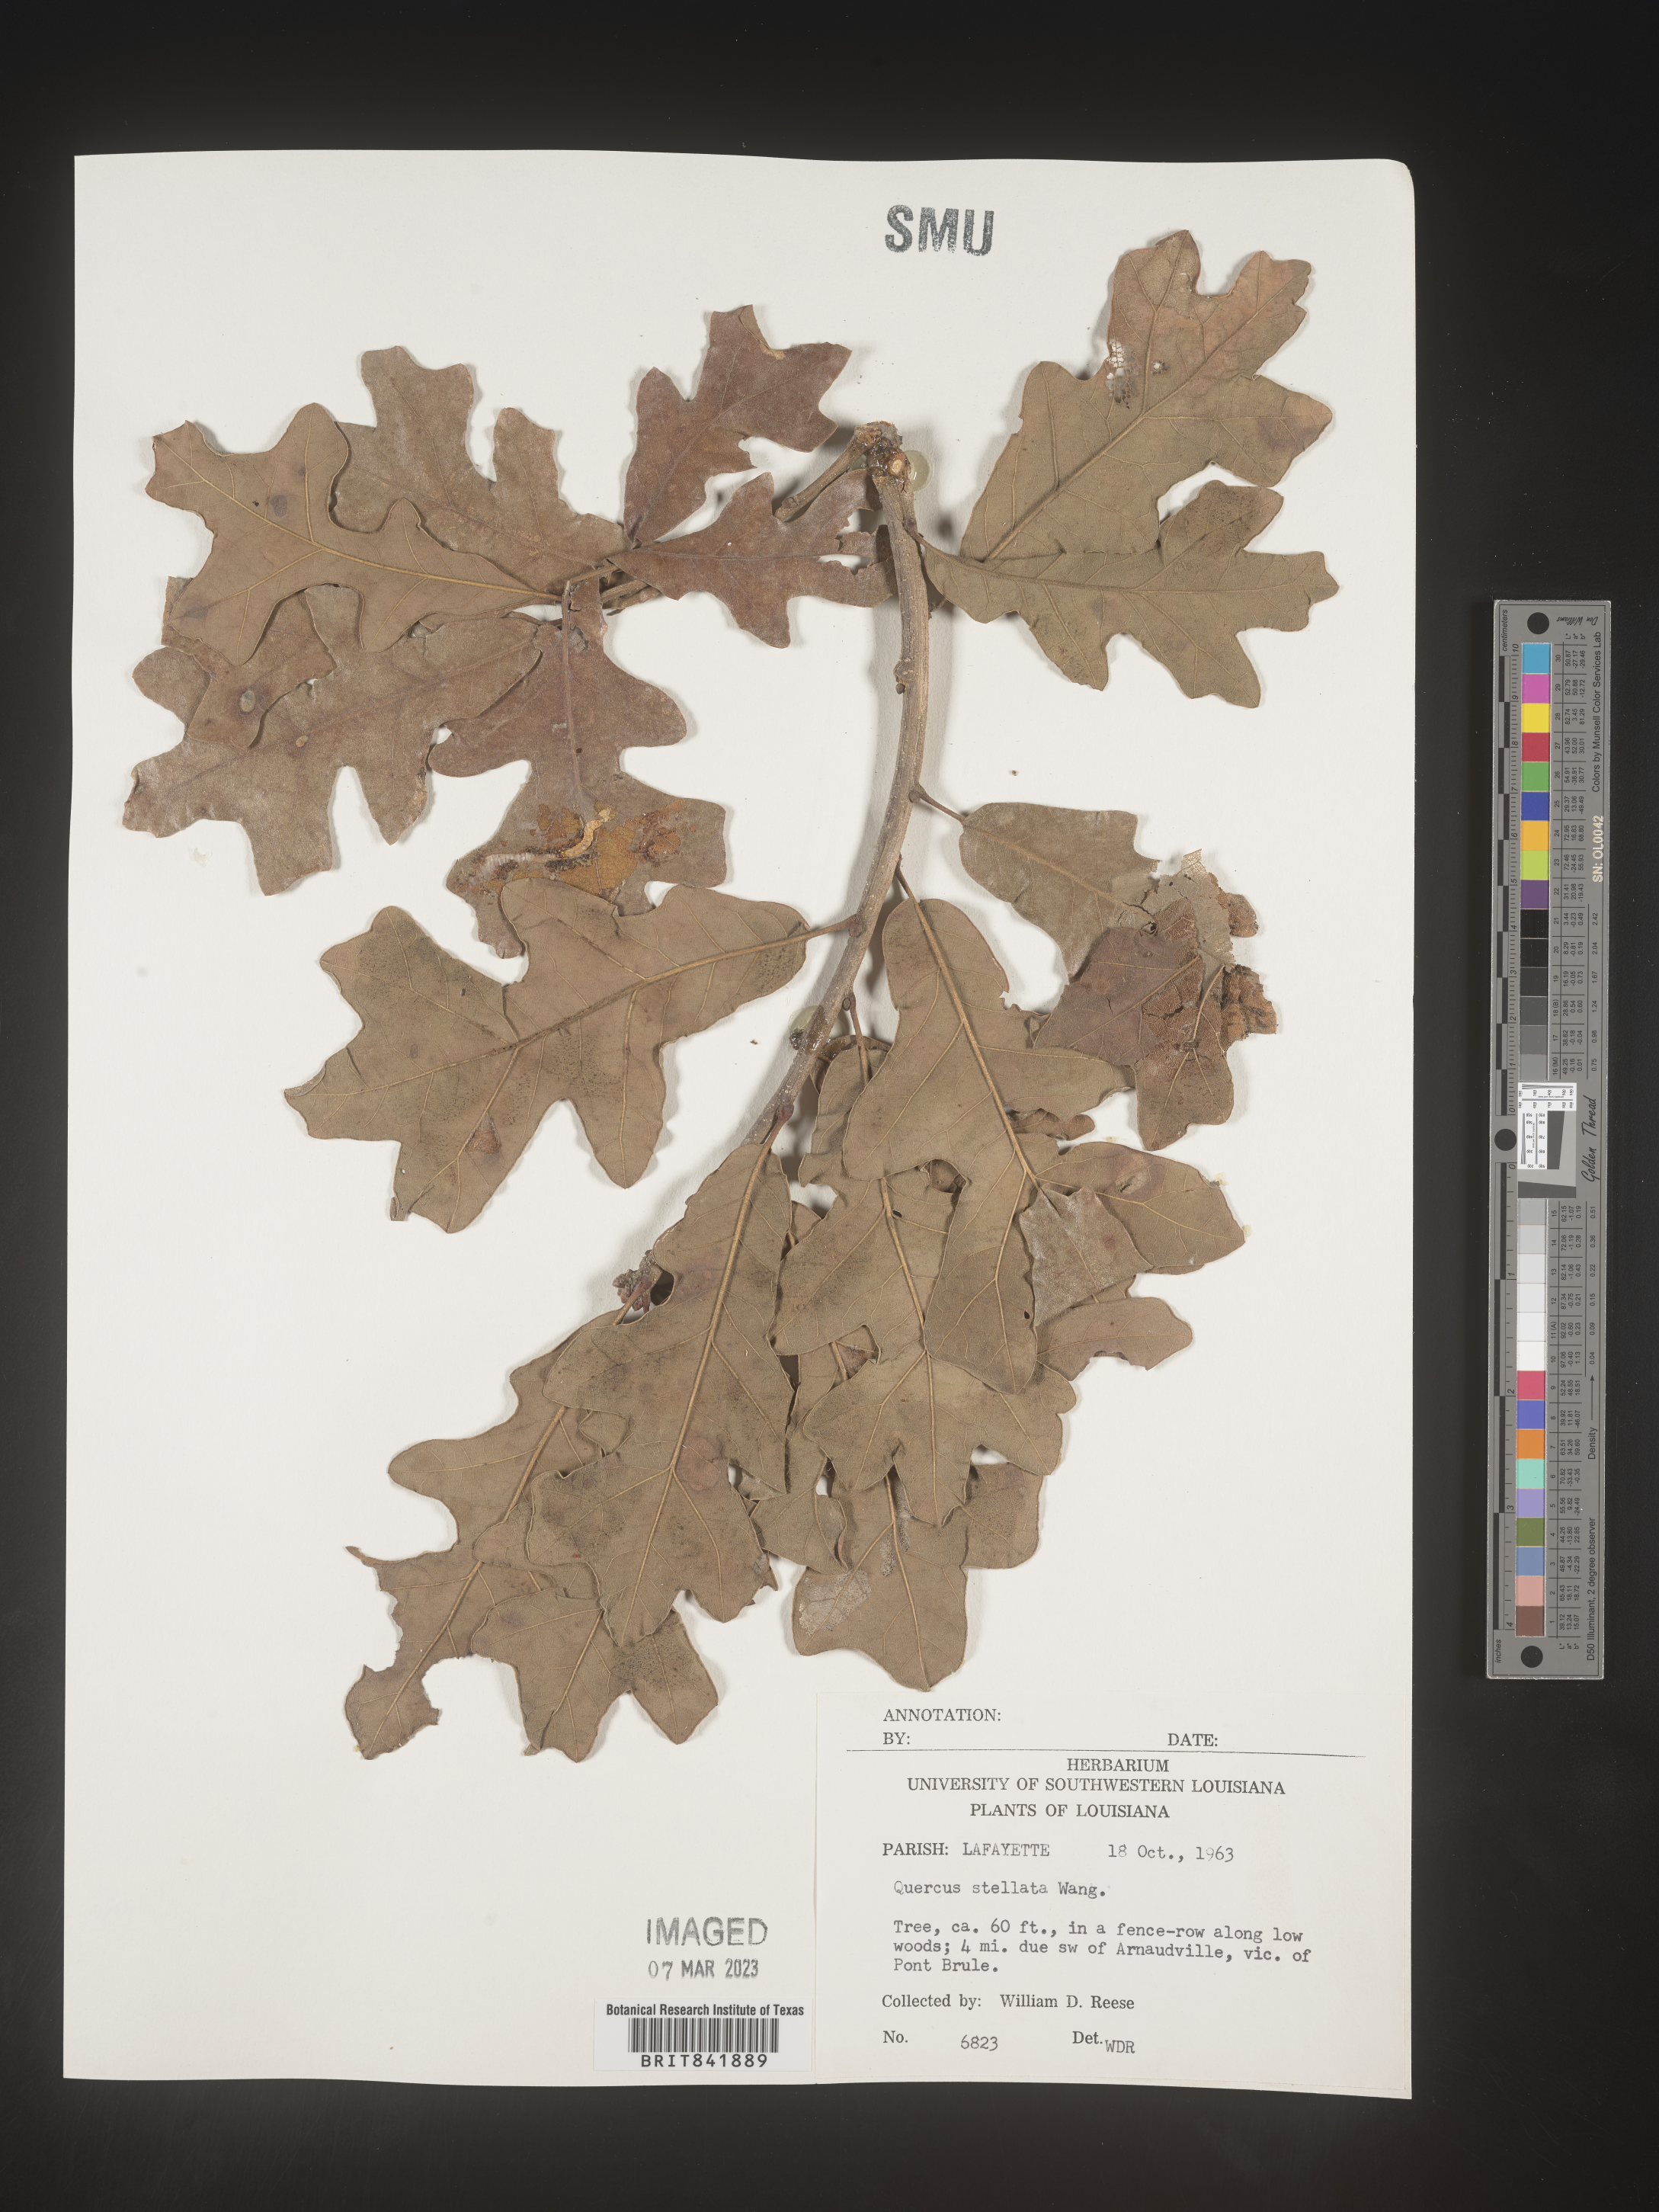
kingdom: Plantae
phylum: Tracheophyta
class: Magnoliopsida
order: Fagales
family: Fagaceae
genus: Quercus
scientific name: Quercus stellata
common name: Post oak
